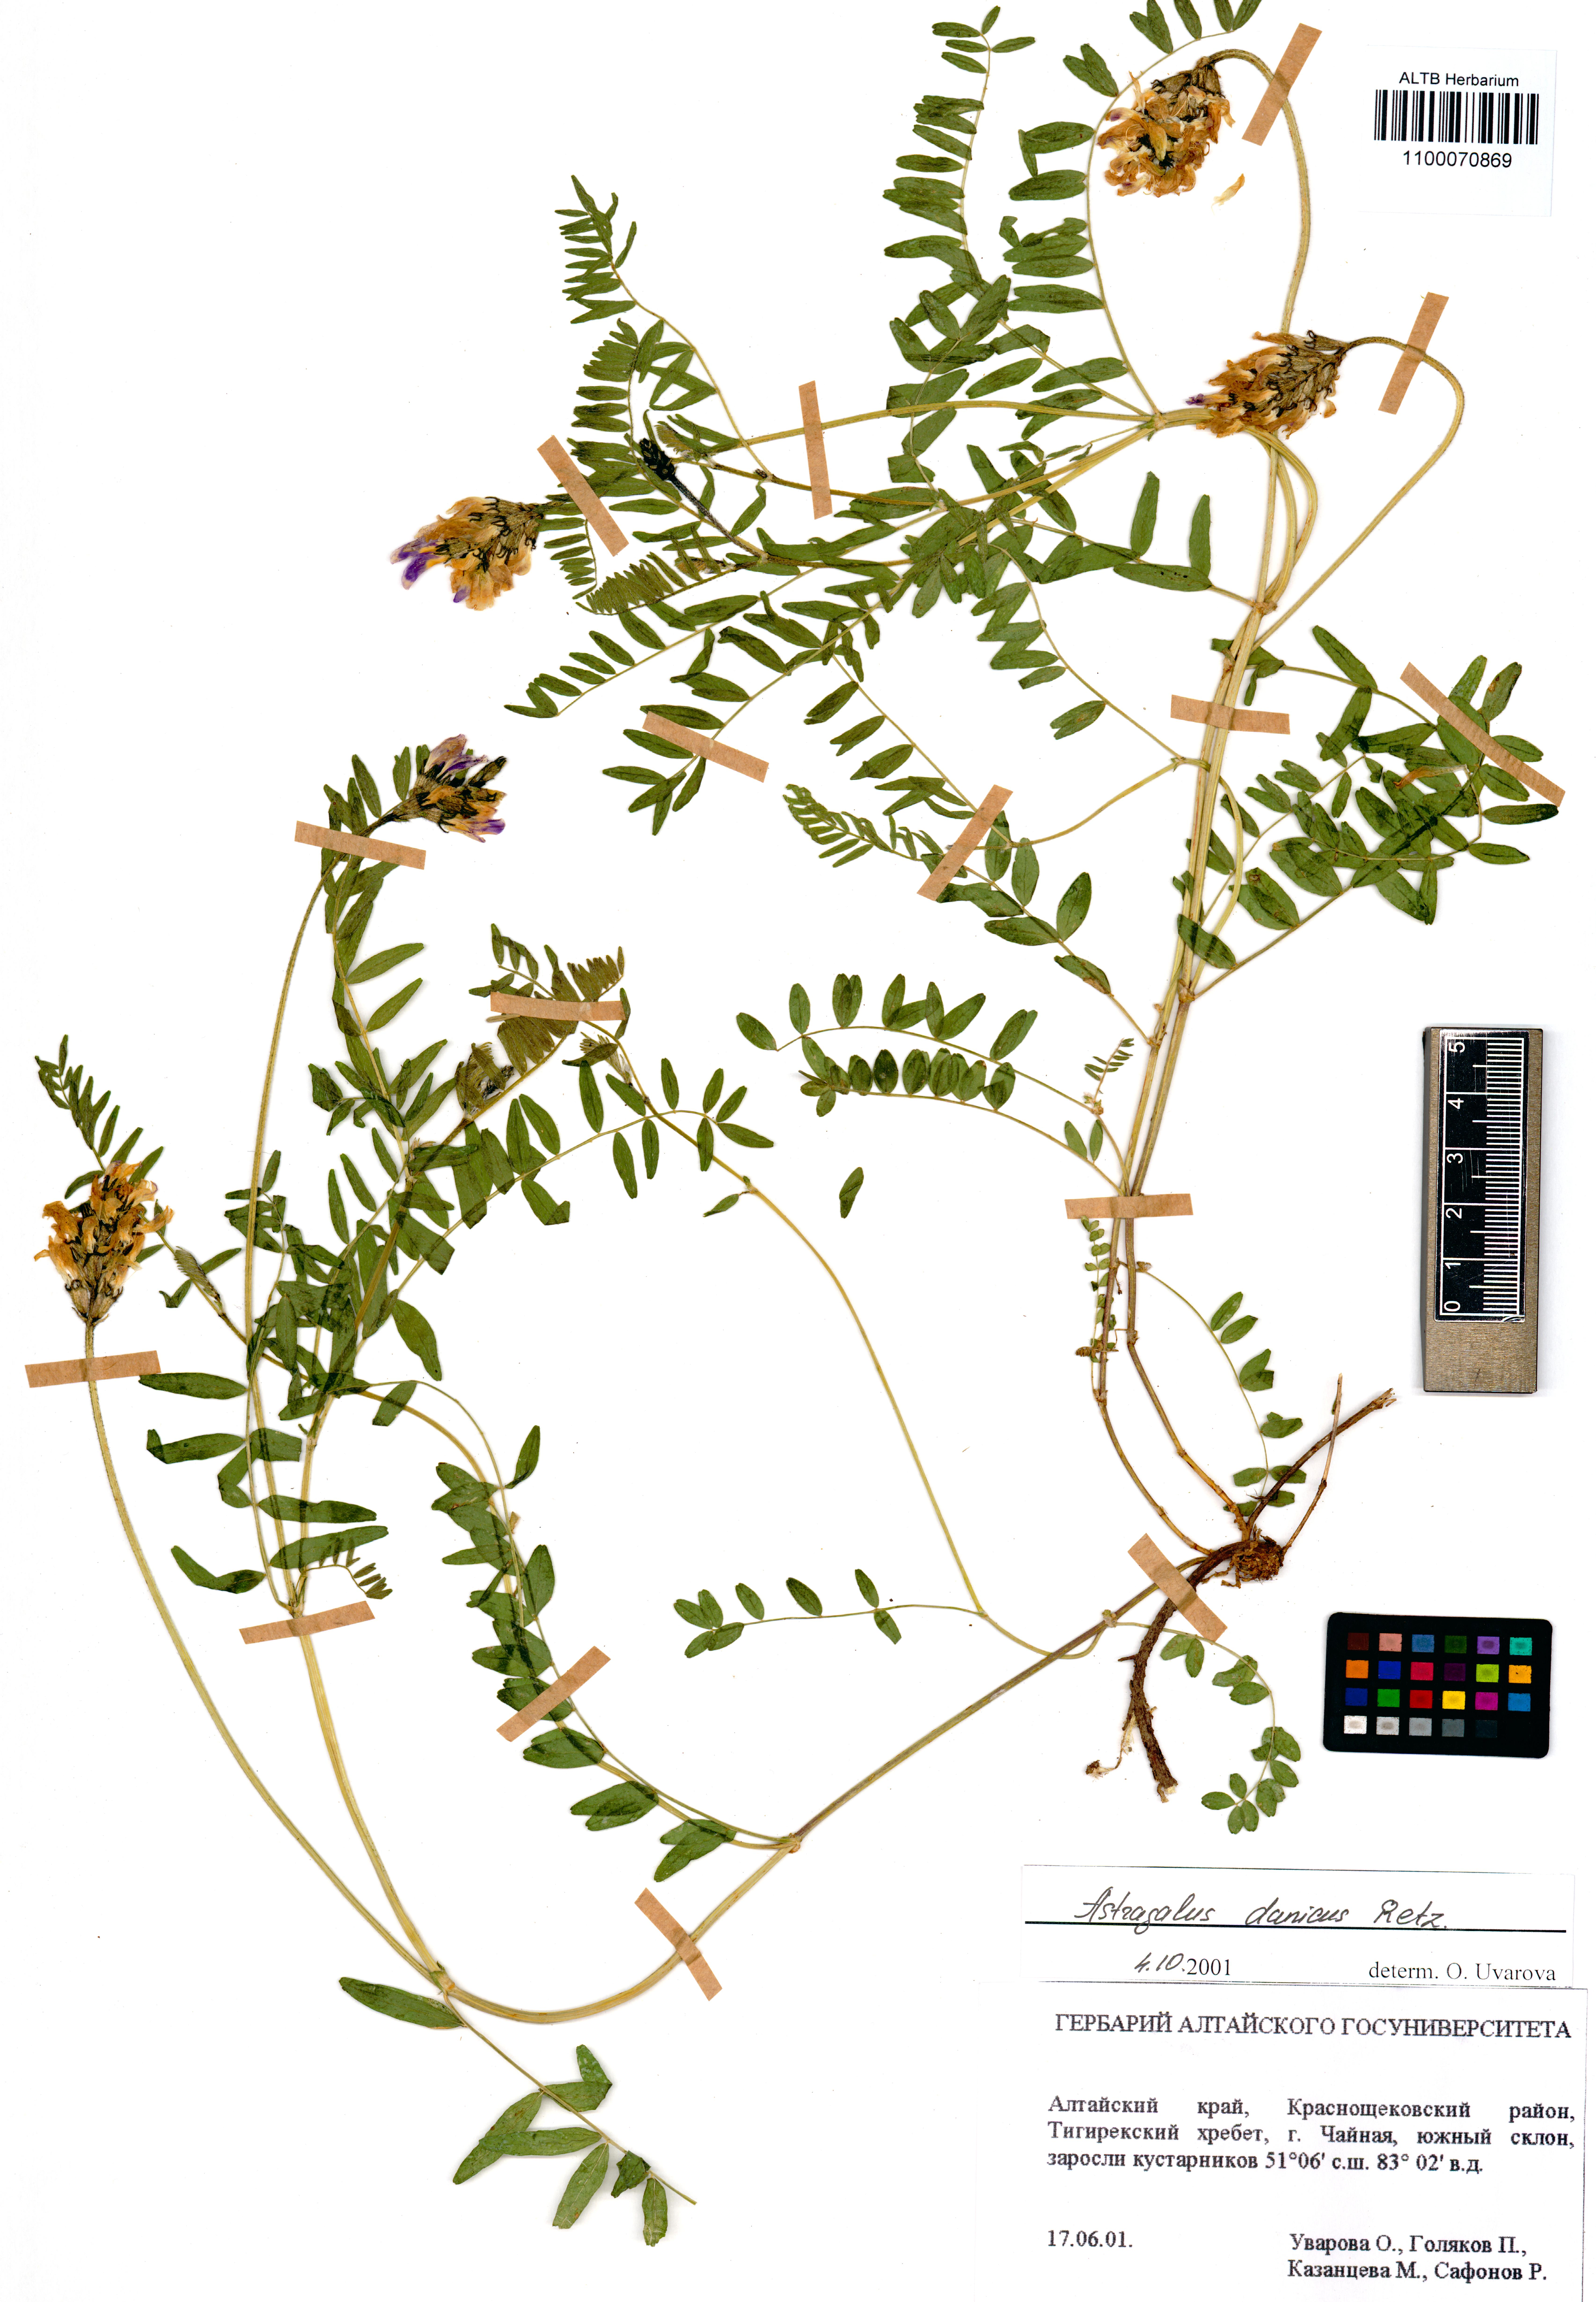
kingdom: Plantae
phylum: Tracheophyta
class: Magnoliopsida
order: Fabales
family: Fabaceae
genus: Astragalus
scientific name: Astragalus danicus
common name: Purple milk-vetch
